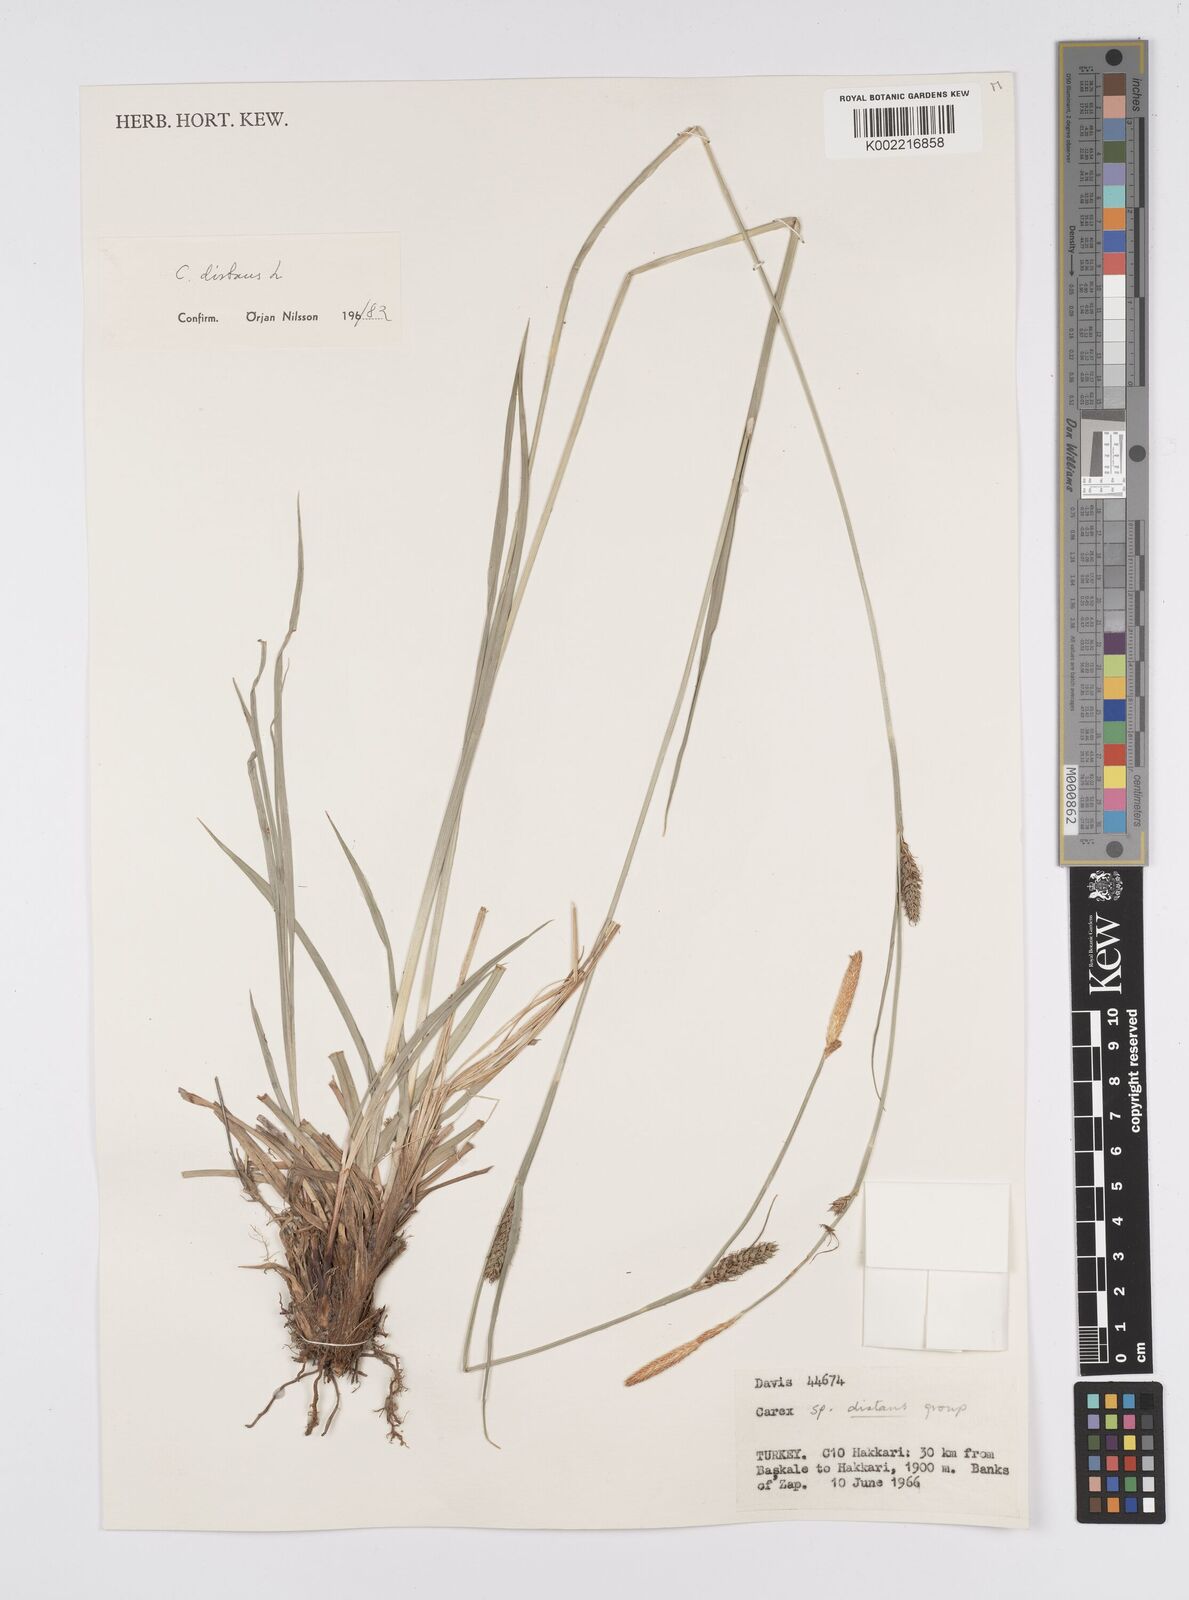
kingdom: Plantae
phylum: Tracheophyta
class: Liliopsida
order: Poales
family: Cyperaceae
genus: Carex
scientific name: Carex distans
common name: Distant sedge
